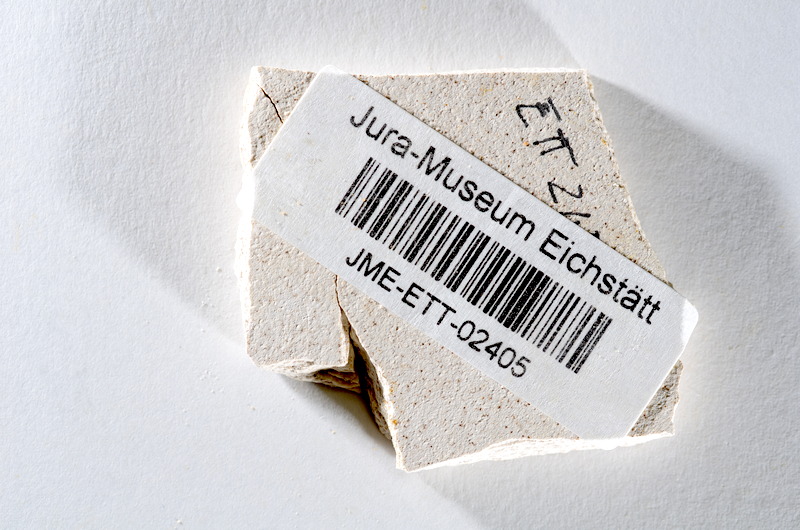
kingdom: Animalia
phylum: Chordata
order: Salmoniformes
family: Orthogonikleithridae
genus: Orthogonikleithrus
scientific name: Orthogonikleithrus hoelli
